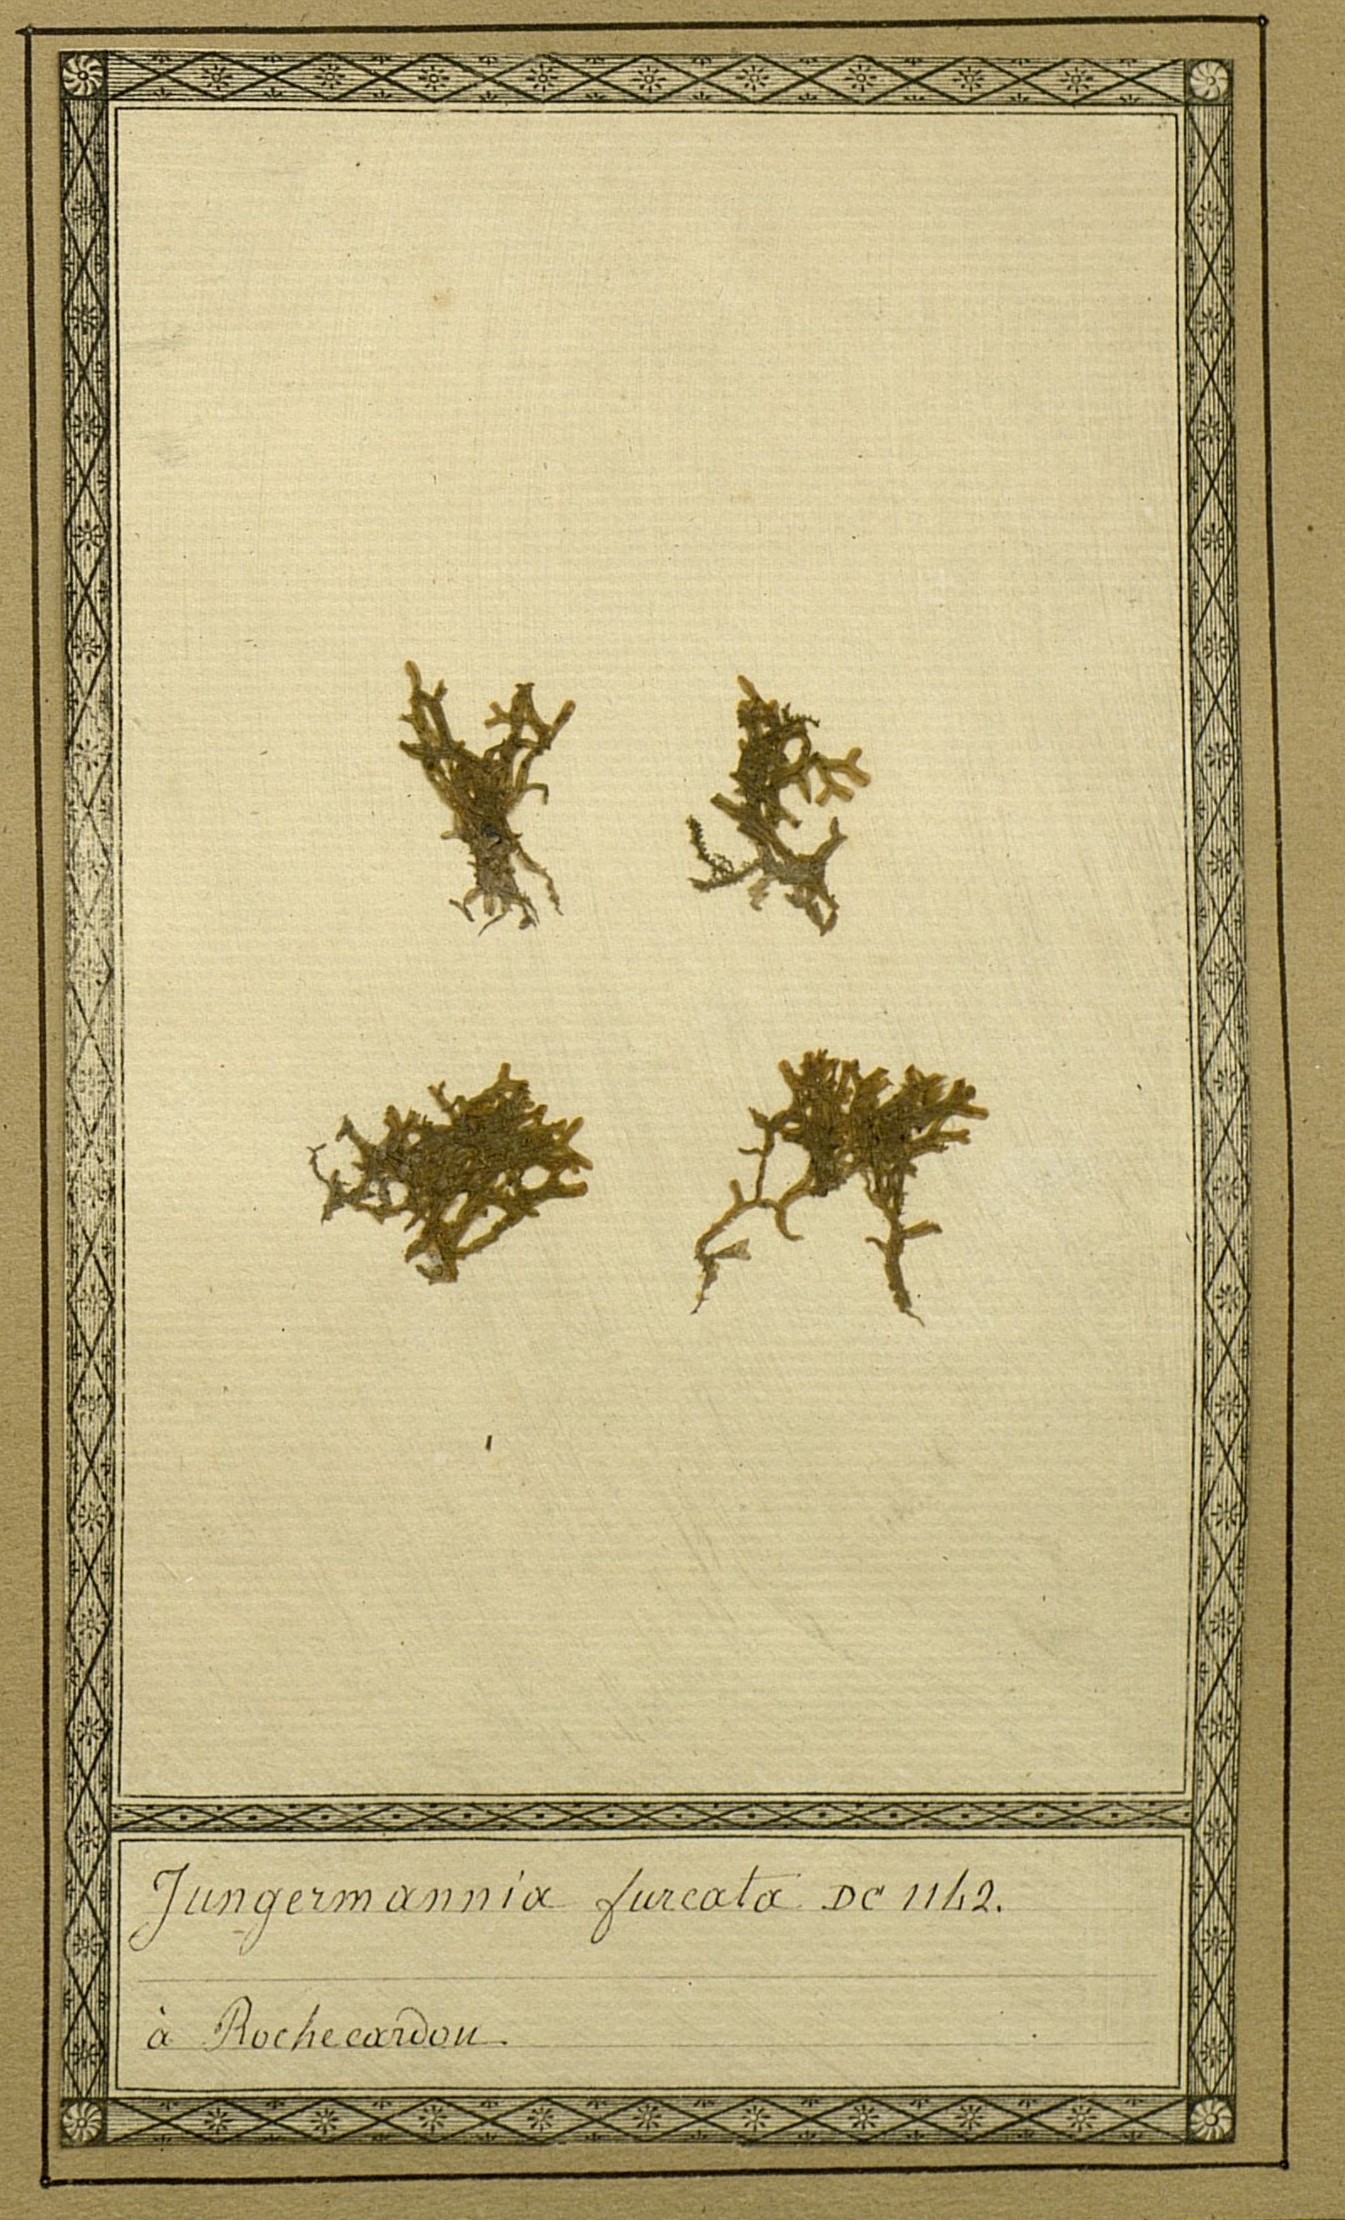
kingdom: Plantae
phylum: Marchantiophyta
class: Jungermanniopsida
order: Metzgeriales
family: Metzgeriaceae
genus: Metzgeria
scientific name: Metzgeria furcata
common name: Forked veilwort
